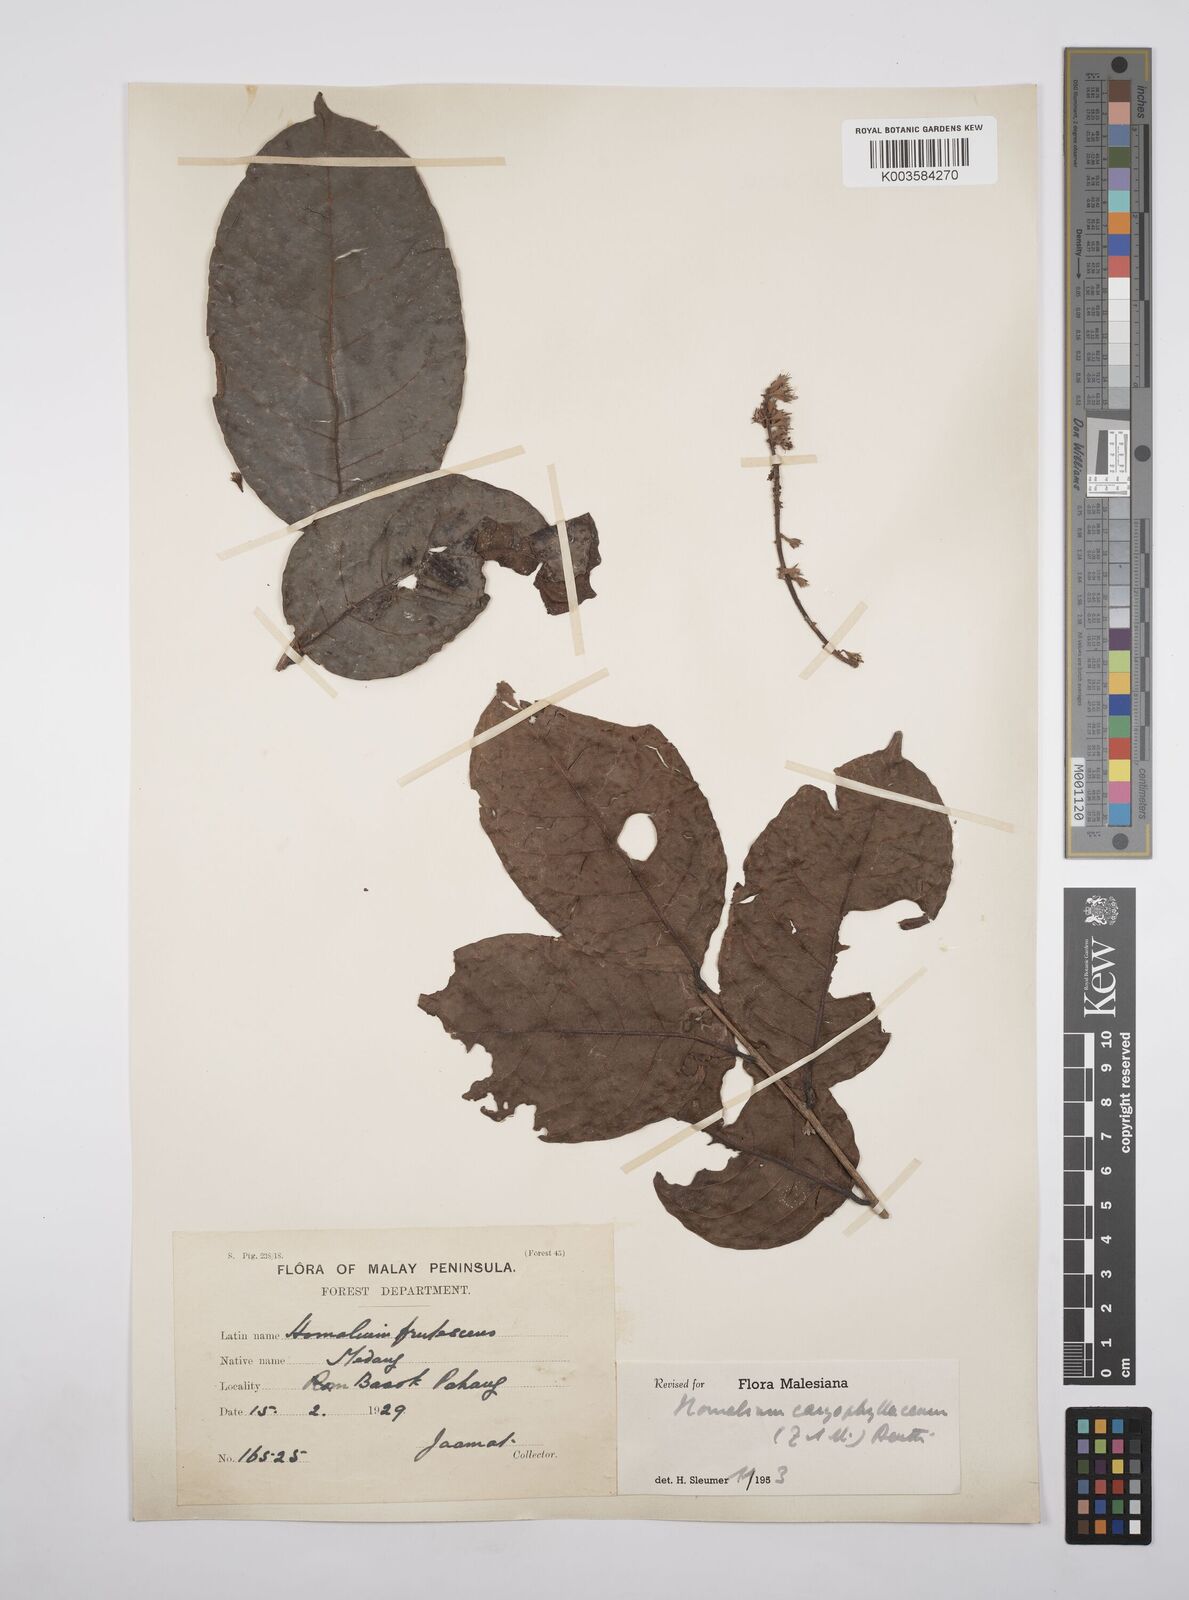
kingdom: Plantae
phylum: Tracheophyta
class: Magnoliopsida
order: Malpighiales
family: Salicaceae
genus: Homalium
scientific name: Homalium caryophyllaceum
